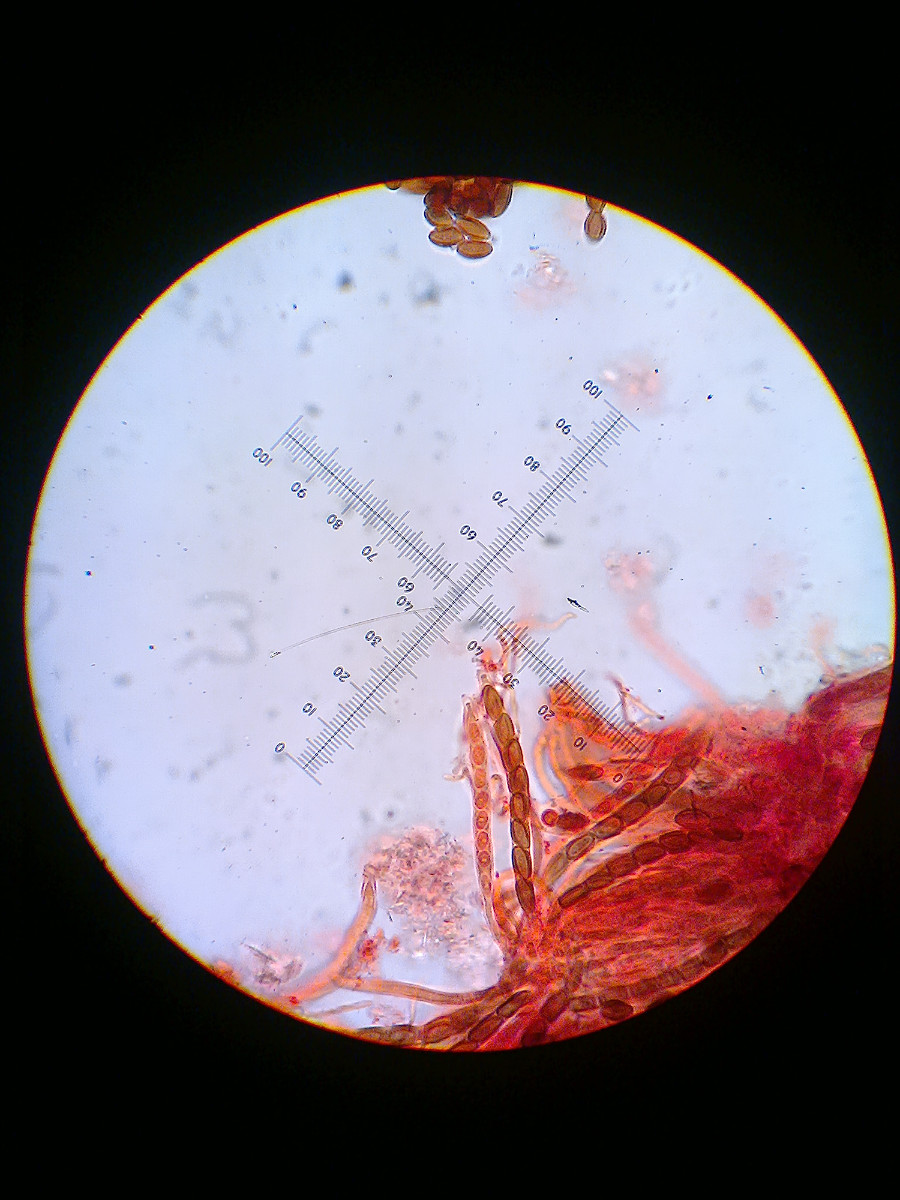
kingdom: Fungi
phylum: Ascomycota
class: Eurotiomycetes
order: Mycocaliciales
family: Mycocaliciaceae
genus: Mycocalicium
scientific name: Mycocalicium subtile
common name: ved-nålesvamp
